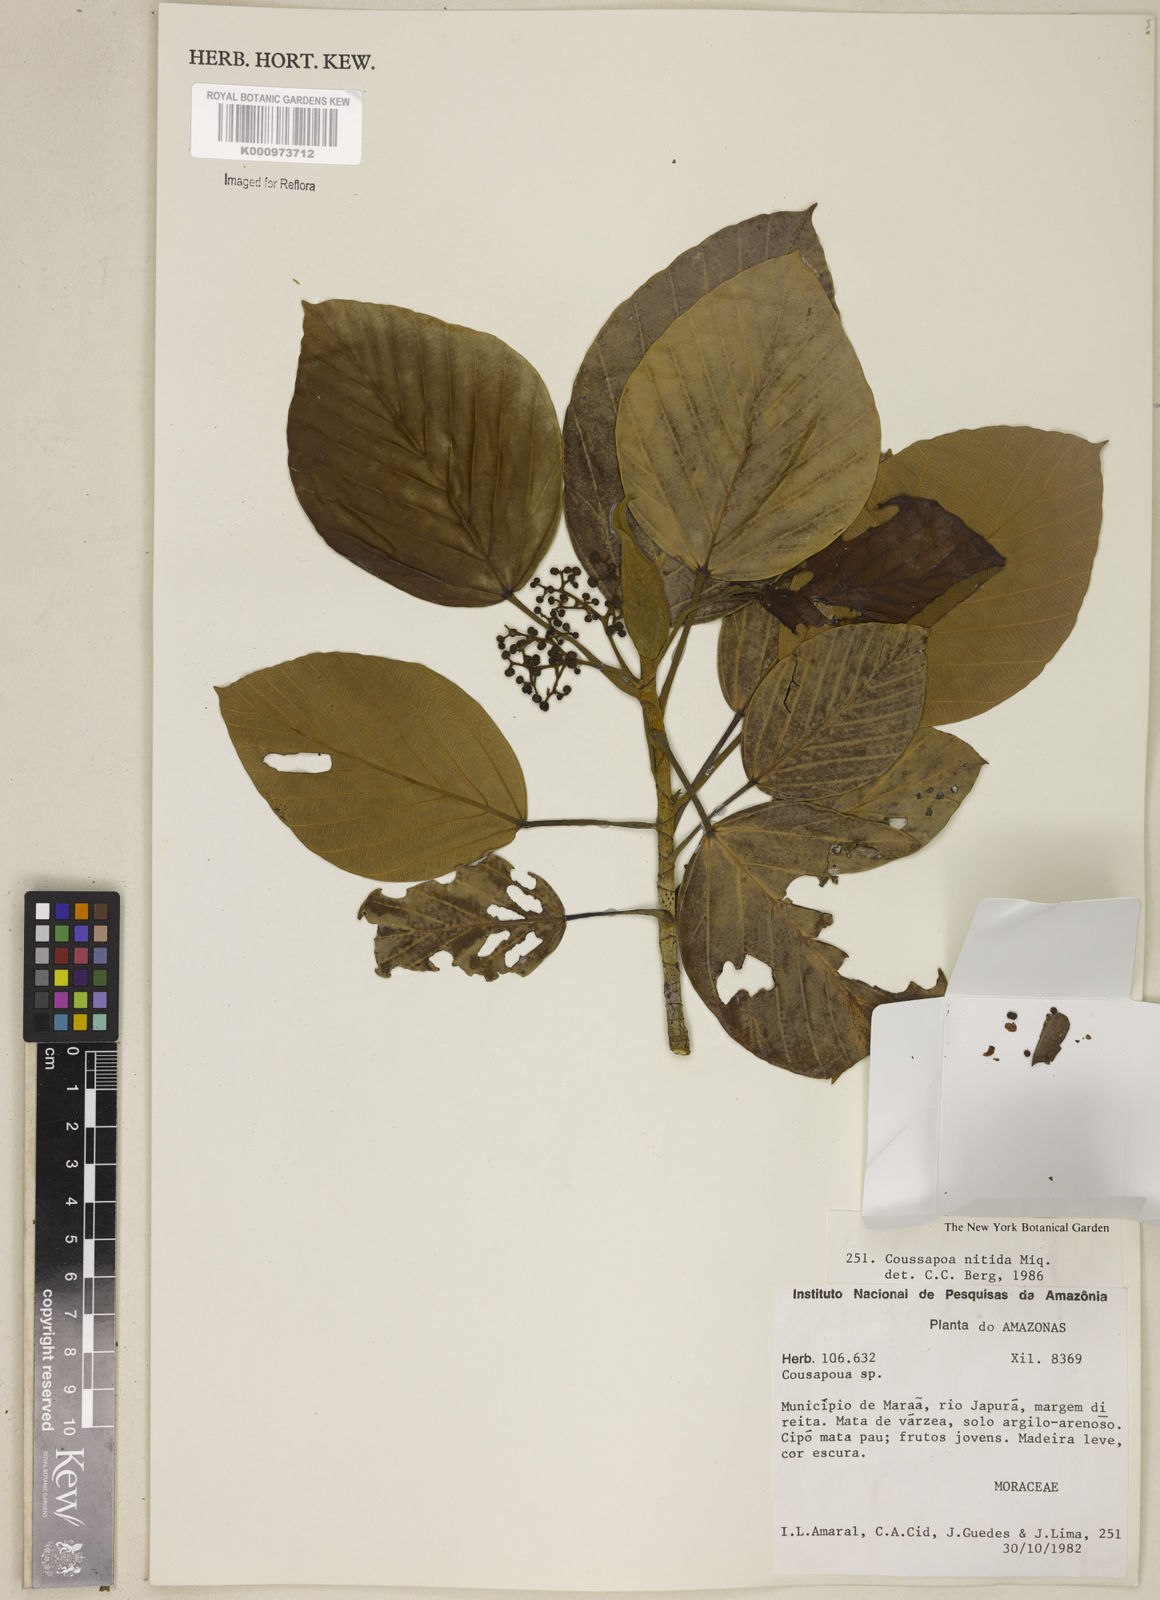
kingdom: Plantae
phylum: Tracheophyta
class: Magnoliopsida
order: Rosales
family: Urticaceae
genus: Coussapoa
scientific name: Coussapoa nitida
